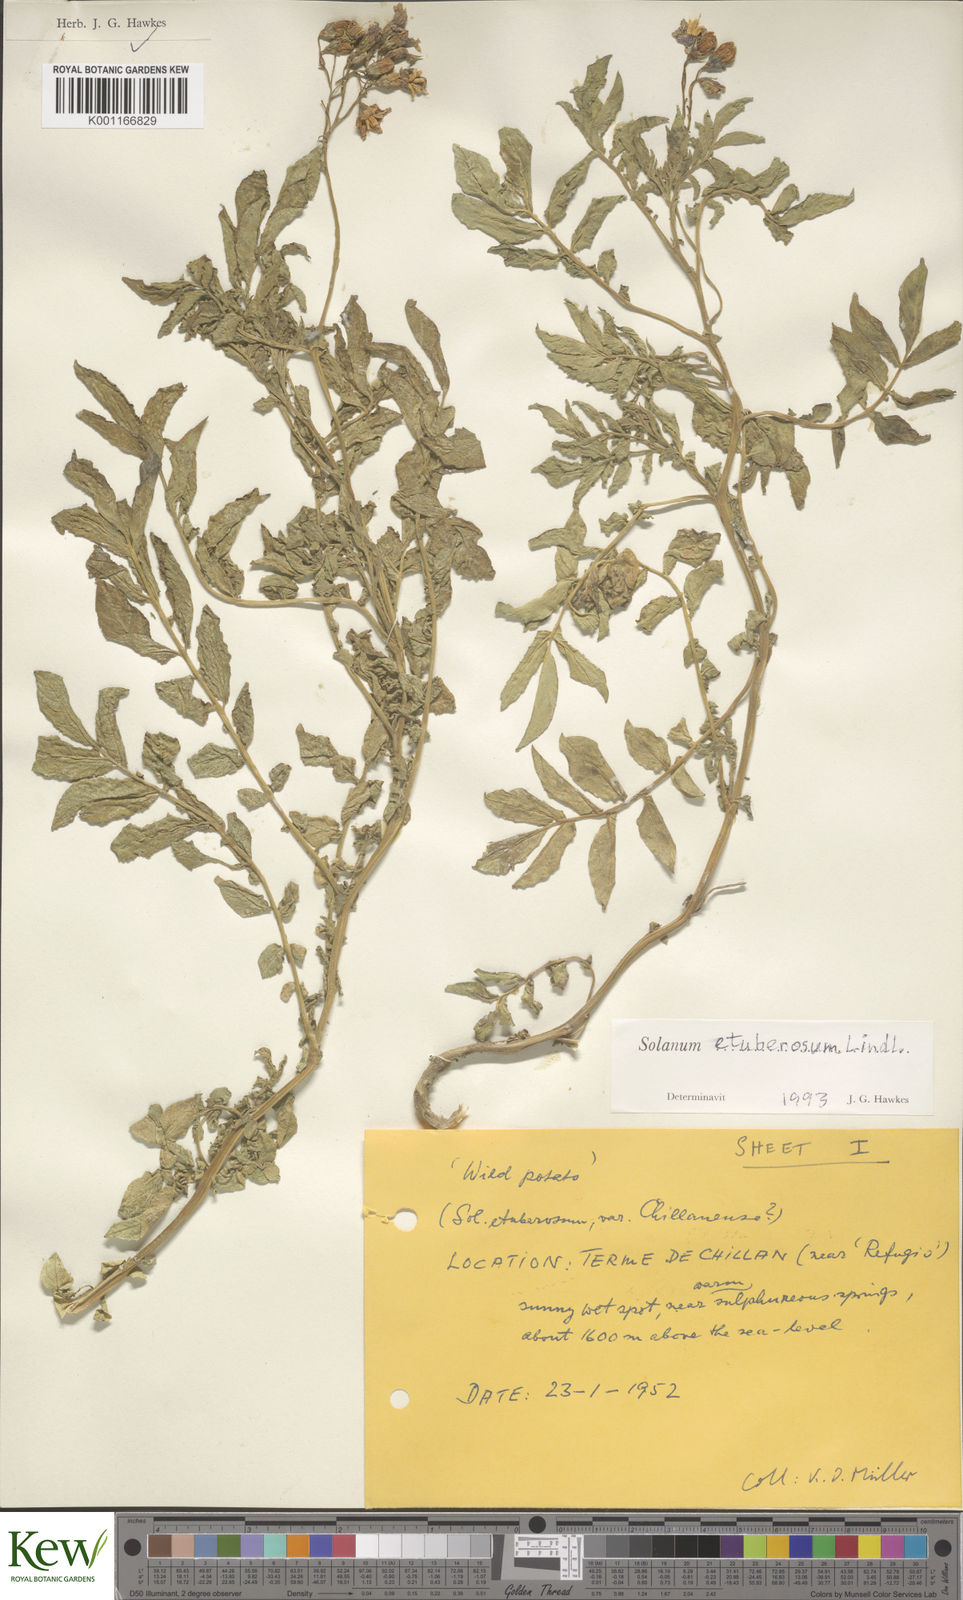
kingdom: Plantae
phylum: Tracheophyta
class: Magnoliopsida
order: Solanales
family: Solanaceae
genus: Solanum
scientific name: Solanum etuberosum
